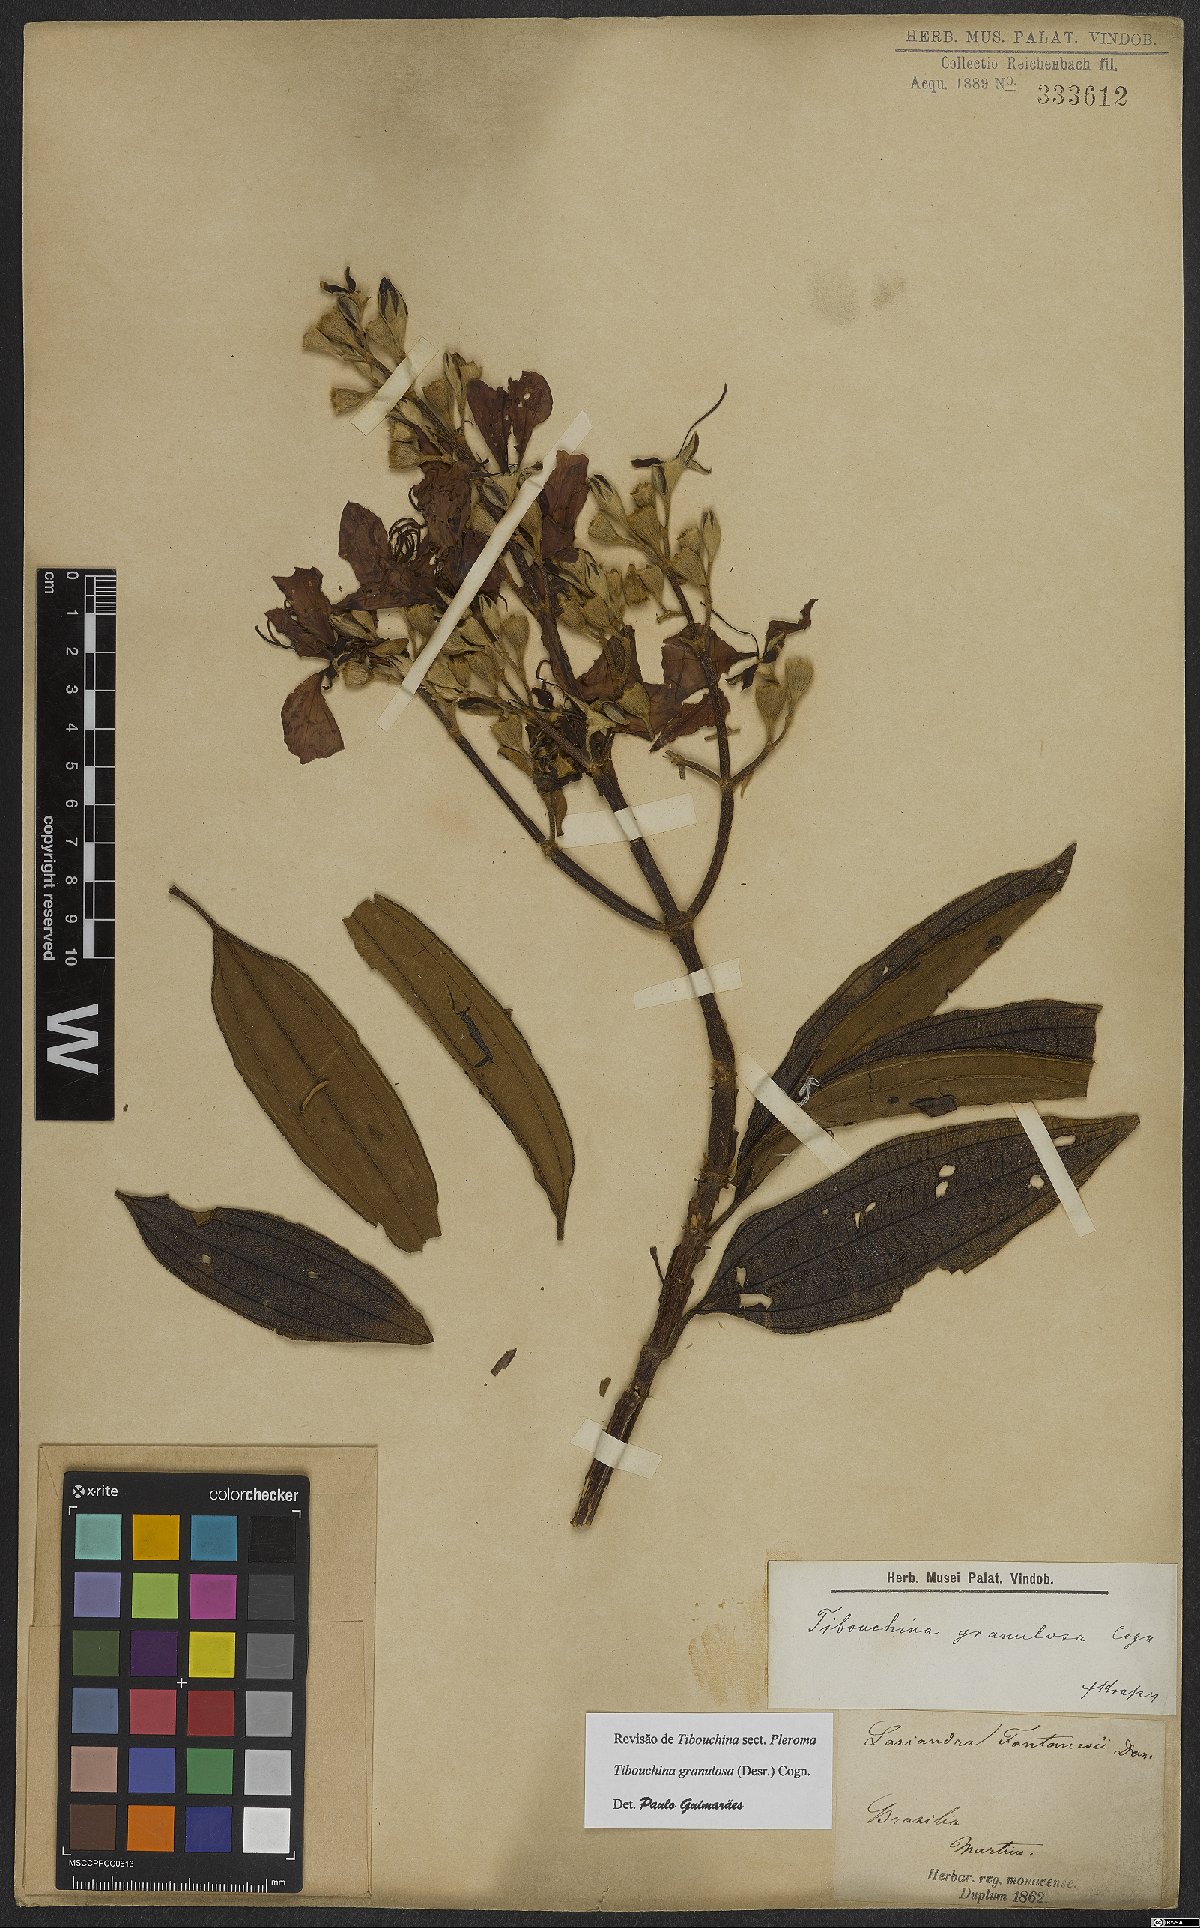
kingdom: Plantae
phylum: Tracheophyta
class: Magnoliopsida
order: Myrtales
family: Melastomataceae
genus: Pleroma
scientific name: Pleroma granulosum
